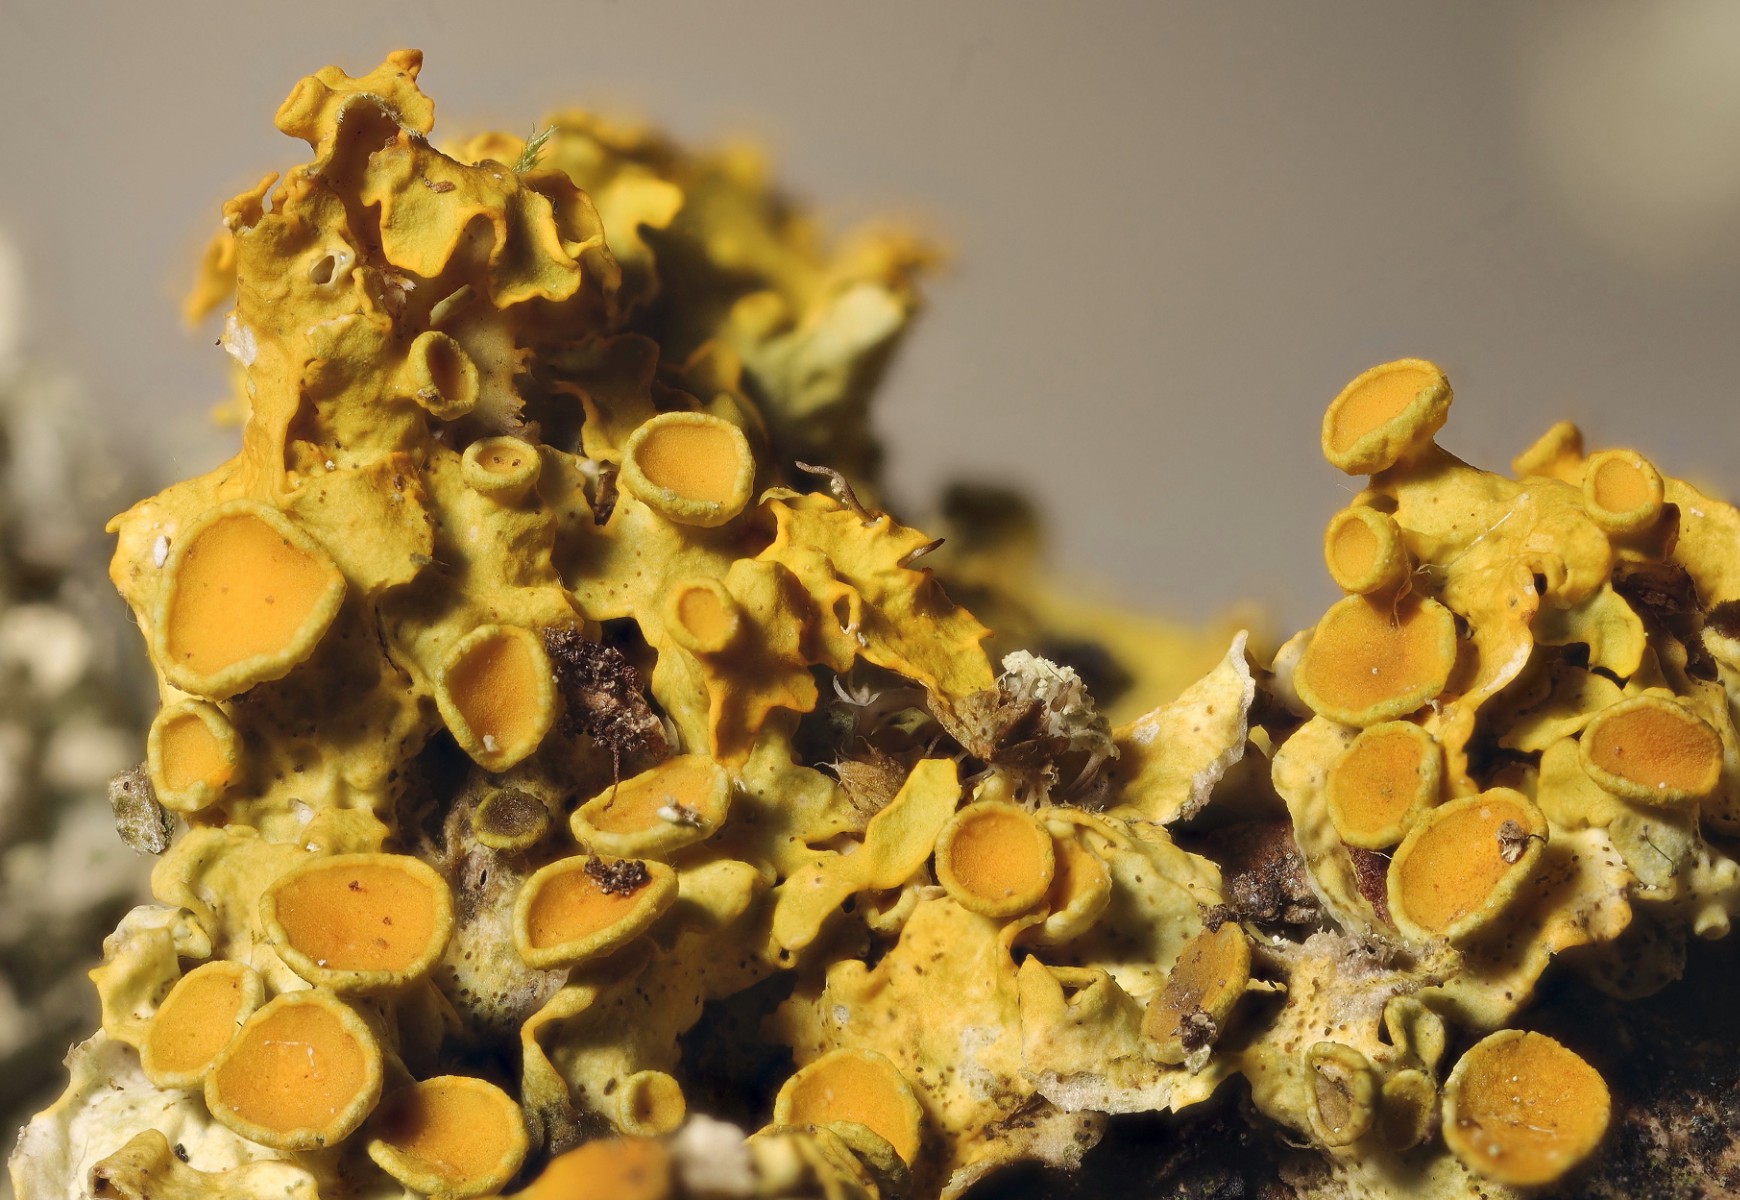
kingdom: Fungi
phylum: Ascomycota
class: Lecanoromycetes
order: Teloschistales
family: Teloschistaceae
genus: Xanthoria
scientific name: Xanthoria parietina
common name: almindelig væggelav
